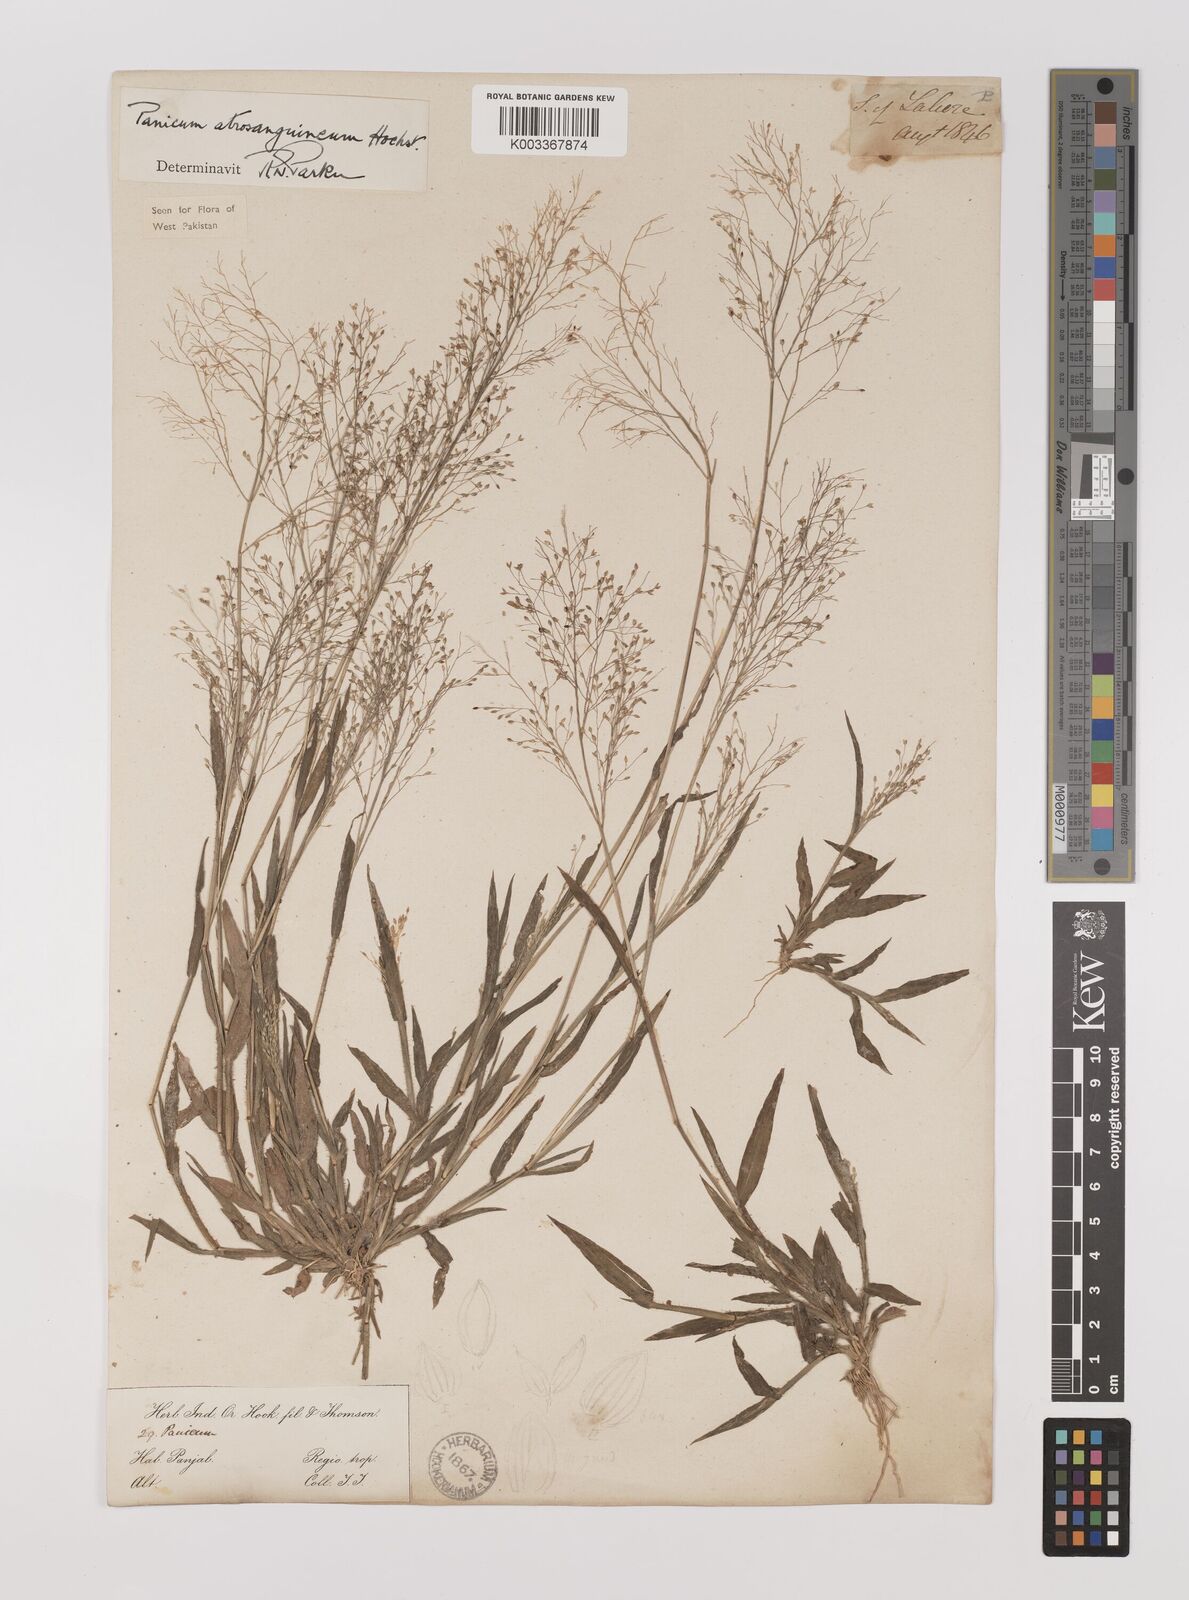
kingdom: Plantae
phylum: Tracheophyta
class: Liliopsida
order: Poales
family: Poaceae
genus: Panicum
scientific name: Panicum atrosanguineum
